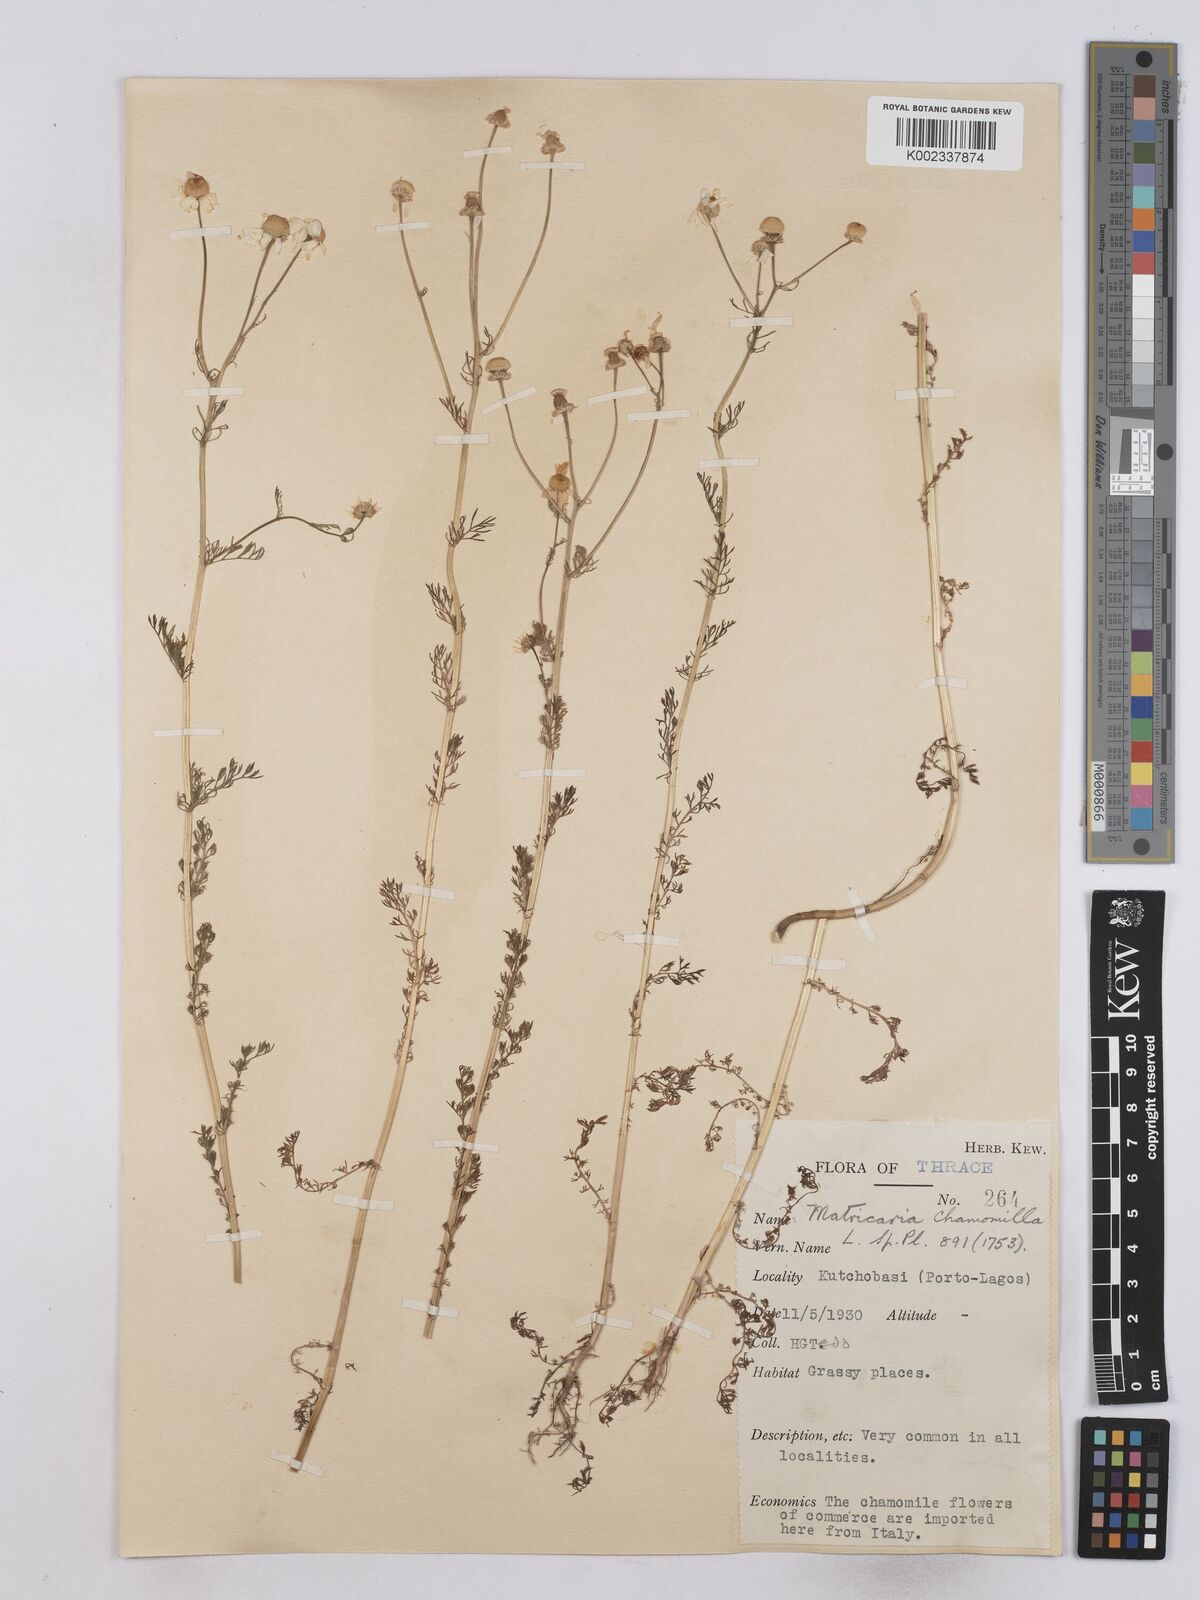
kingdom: Plantae
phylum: Tracheophyta
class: Magnoliopsida
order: Asterales
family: Asteraceae
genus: Matricaria
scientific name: Matricaria chamomilla
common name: Scented mayweed
